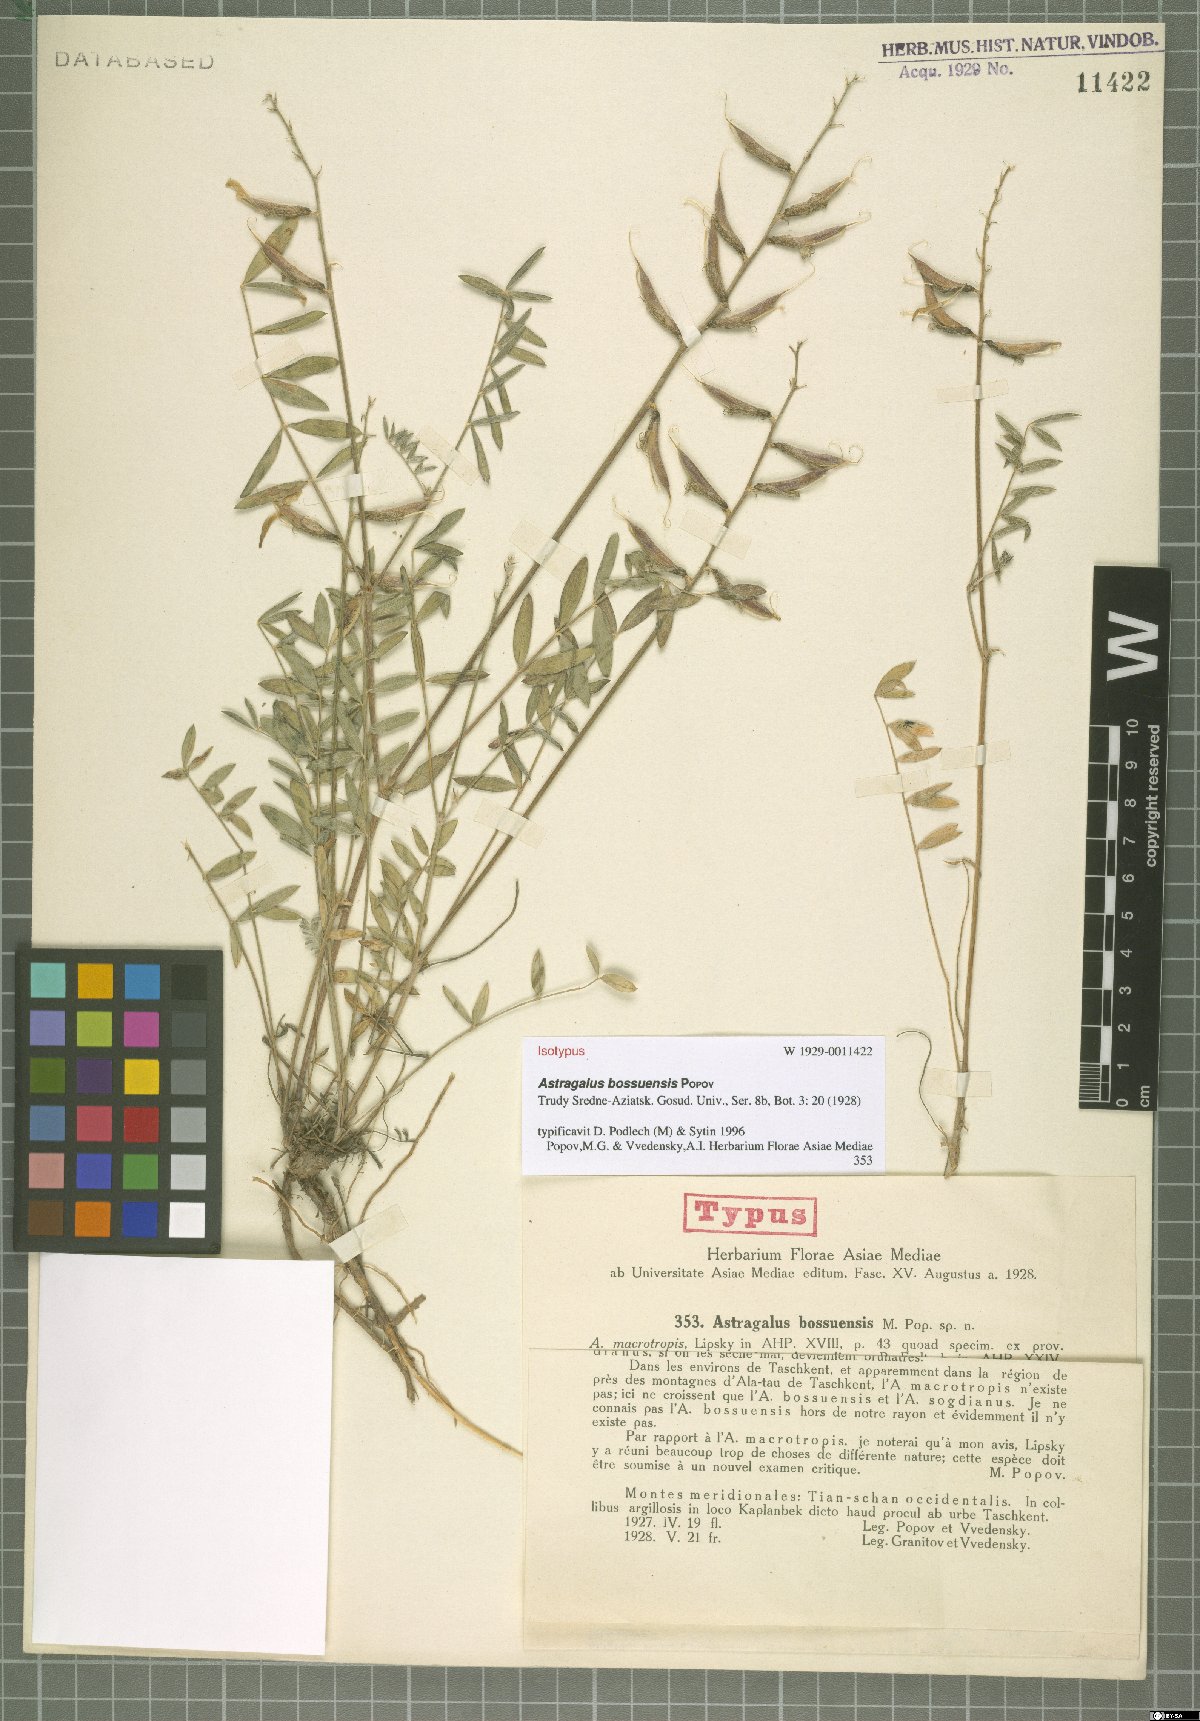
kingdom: Plantae
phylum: Tracheophyta
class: Magnoliopsida
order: Fabales
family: Fabaceae
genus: Astragalus
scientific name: Astragalus bossuensis
